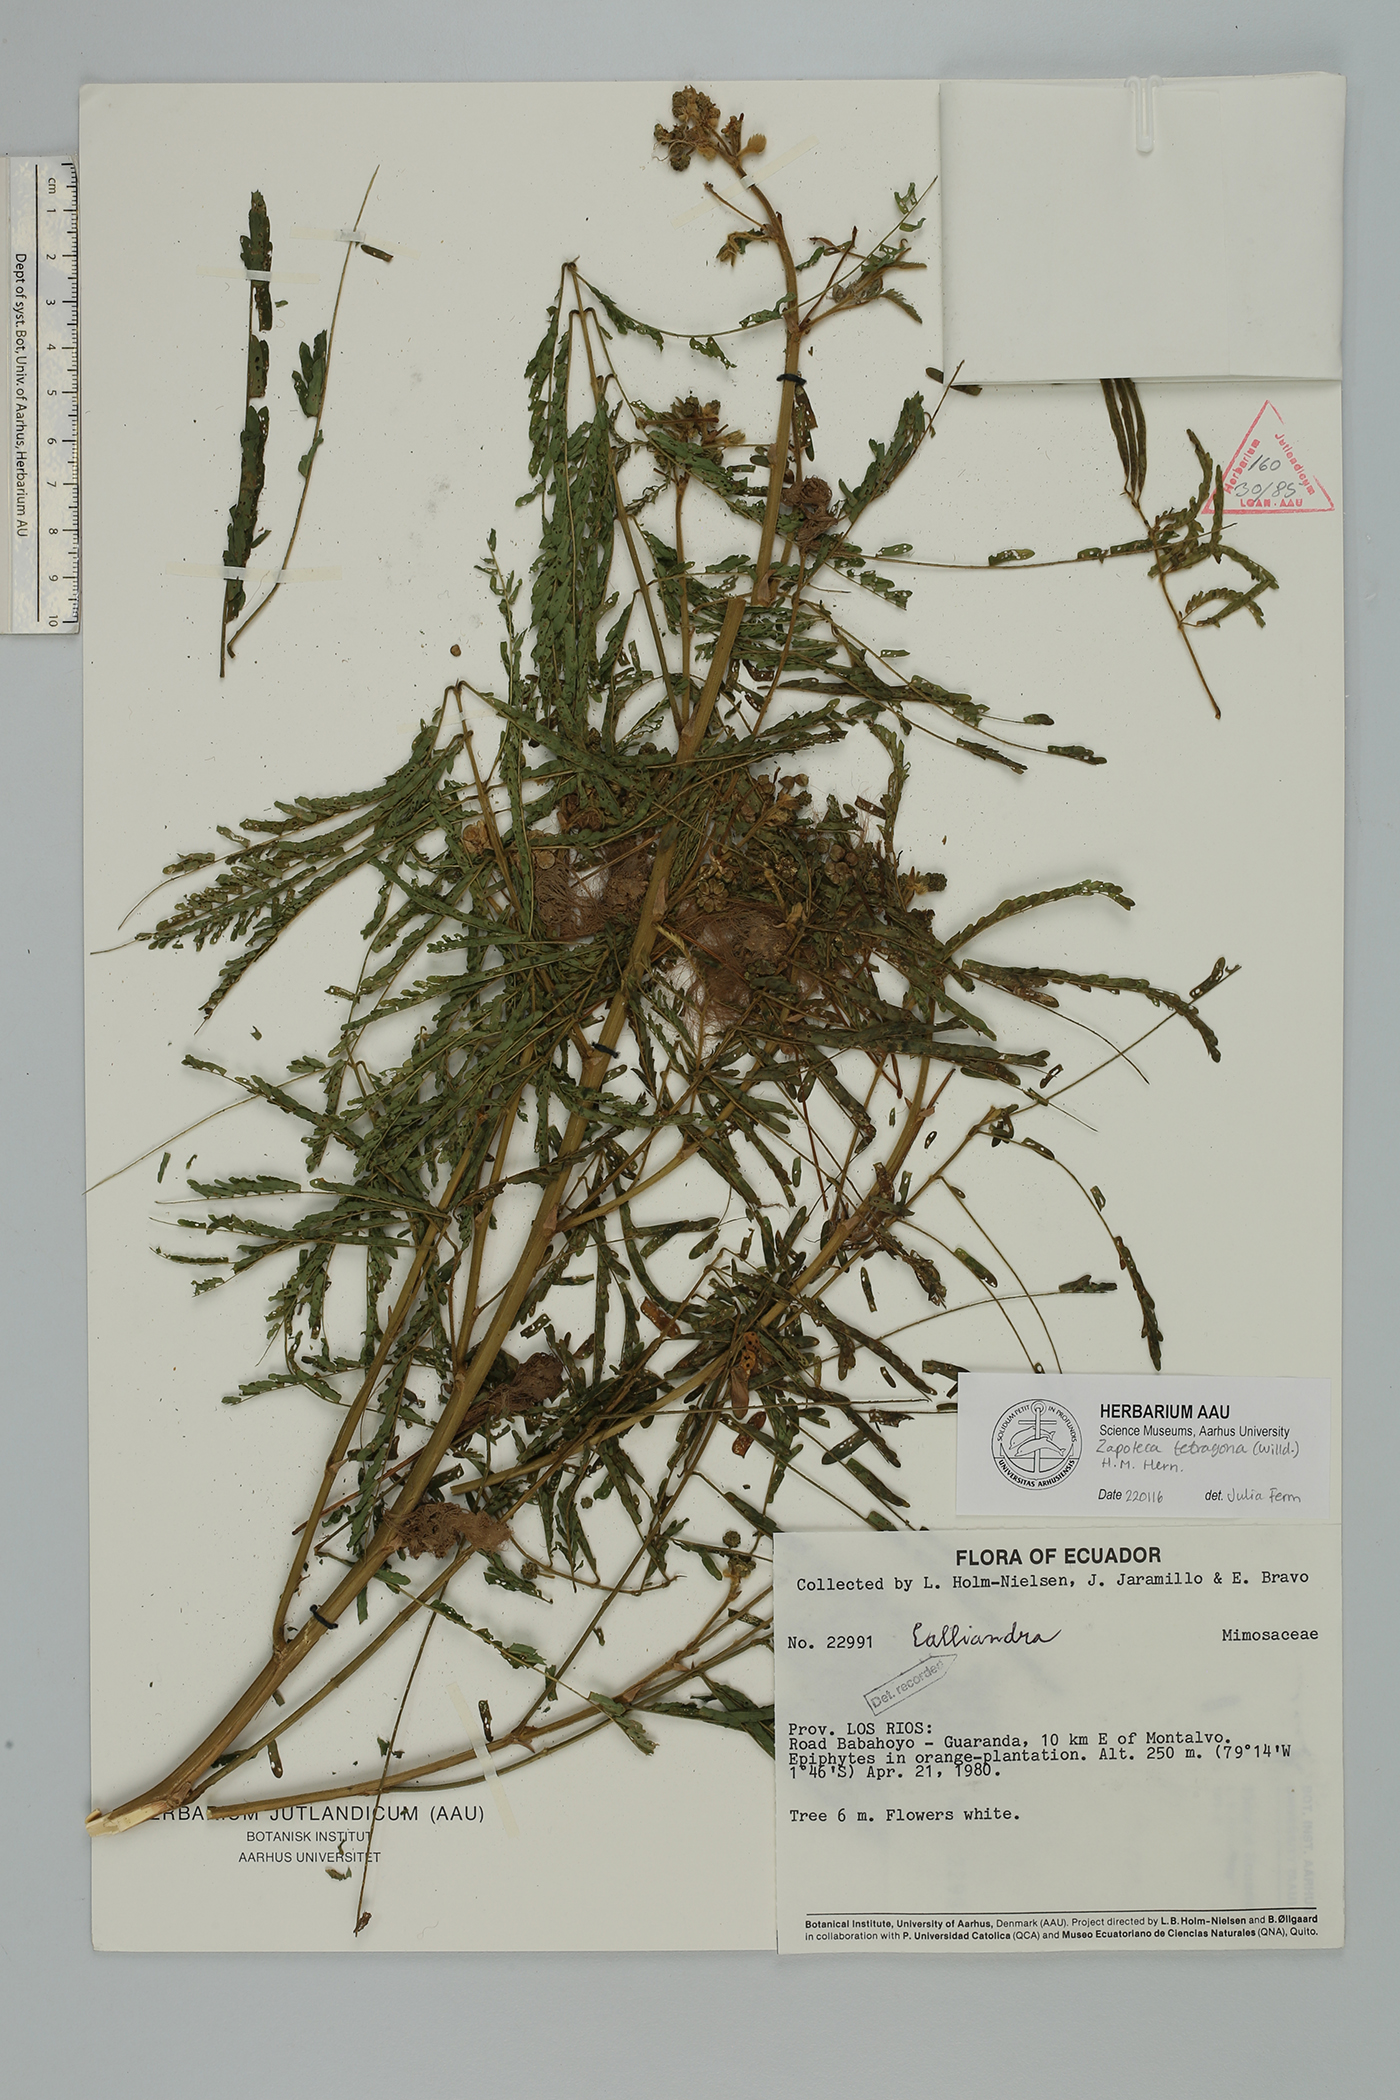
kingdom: Plantae
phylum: Tracheophyta
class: Magnoliopsida
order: Fabales
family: Fabaceae
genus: Zapoteca
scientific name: Zapoteca tetragona
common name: White calliandra
